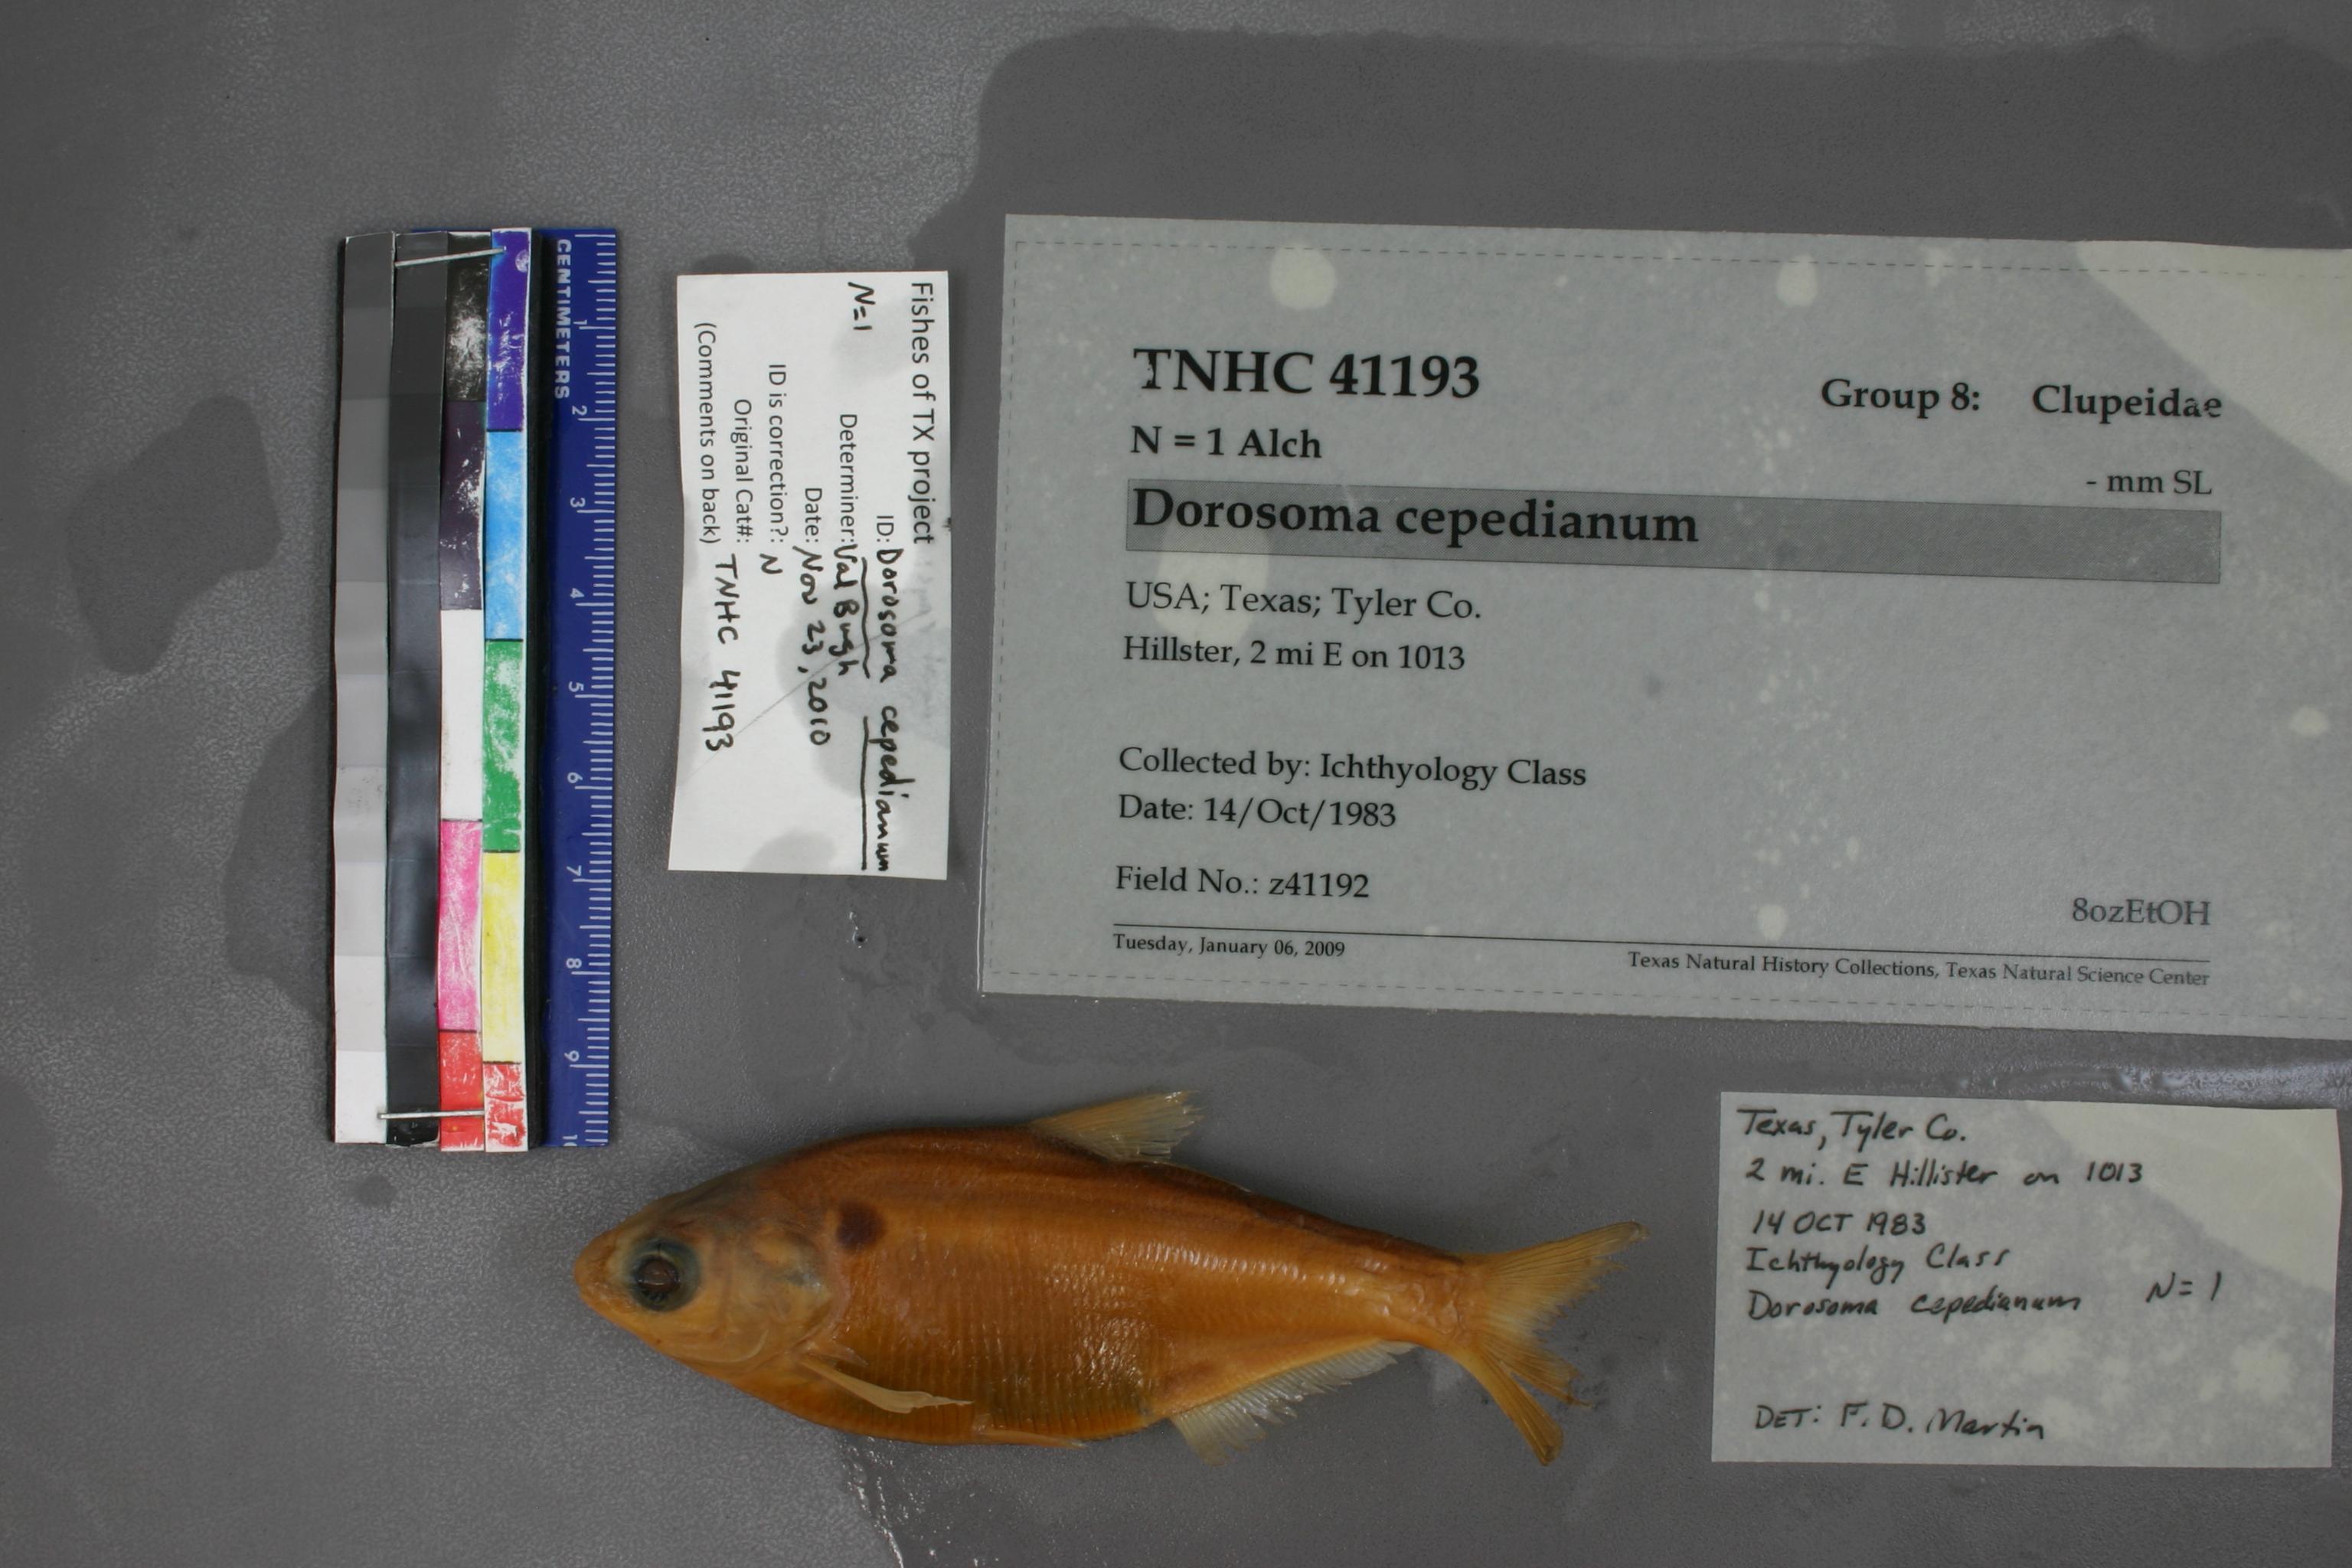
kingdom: Animalia
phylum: Chordata
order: Clupeiformes
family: Clupeidae
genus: Dorosoma
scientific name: Dorosoma cepedianum
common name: Gizzard shad
